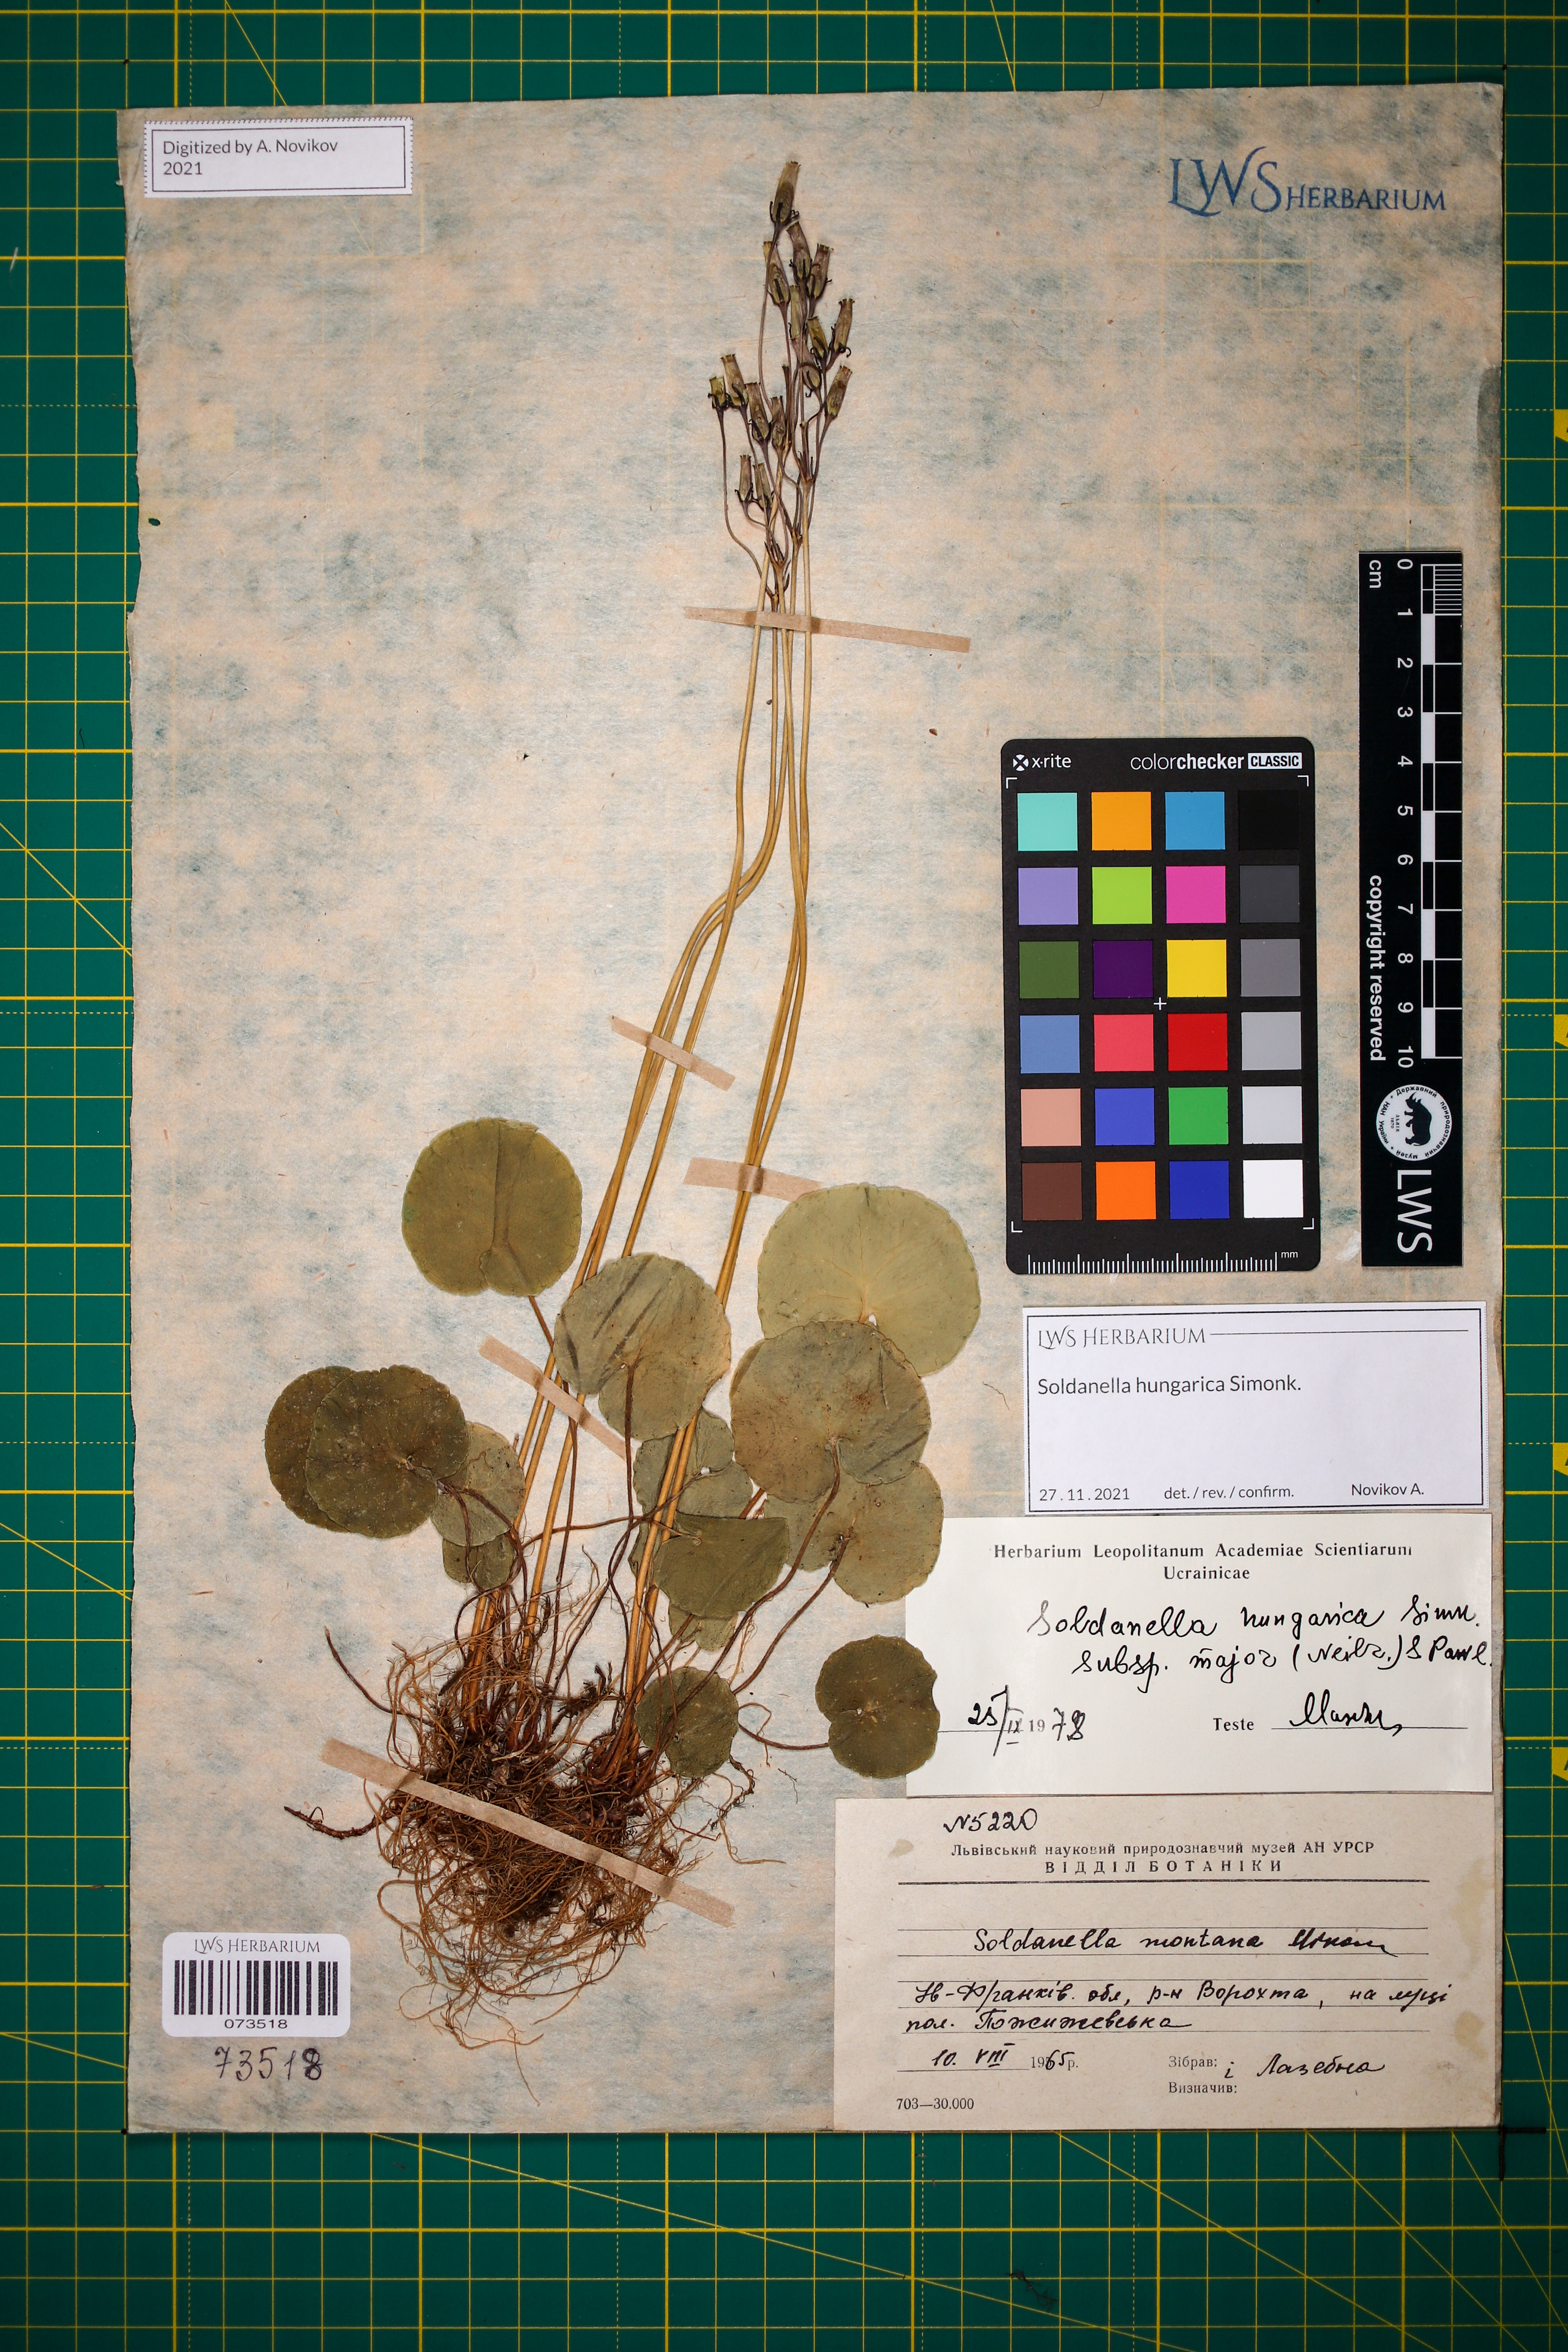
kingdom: Plantae
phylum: Tracheophyta
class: Magnoliopsida
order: Ericales
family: Primulaceae
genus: Soldanella
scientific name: Soldanella hungarica
